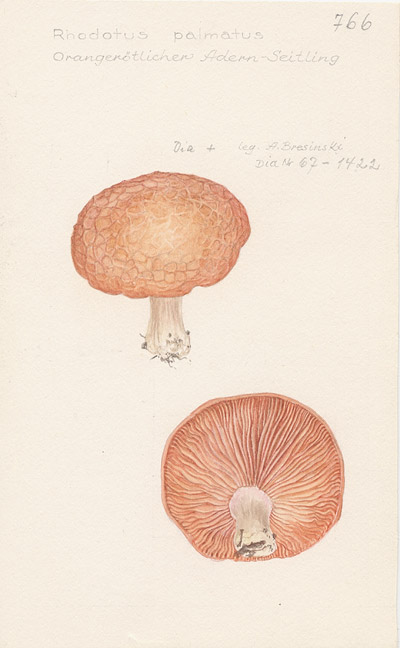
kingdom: Fungi
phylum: Basidiomycota
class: Agaricomycetes
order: Agaricales
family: Physalacriaceae
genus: Rhodotus
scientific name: Rhodotus palmatus
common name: Wrinkled peach
